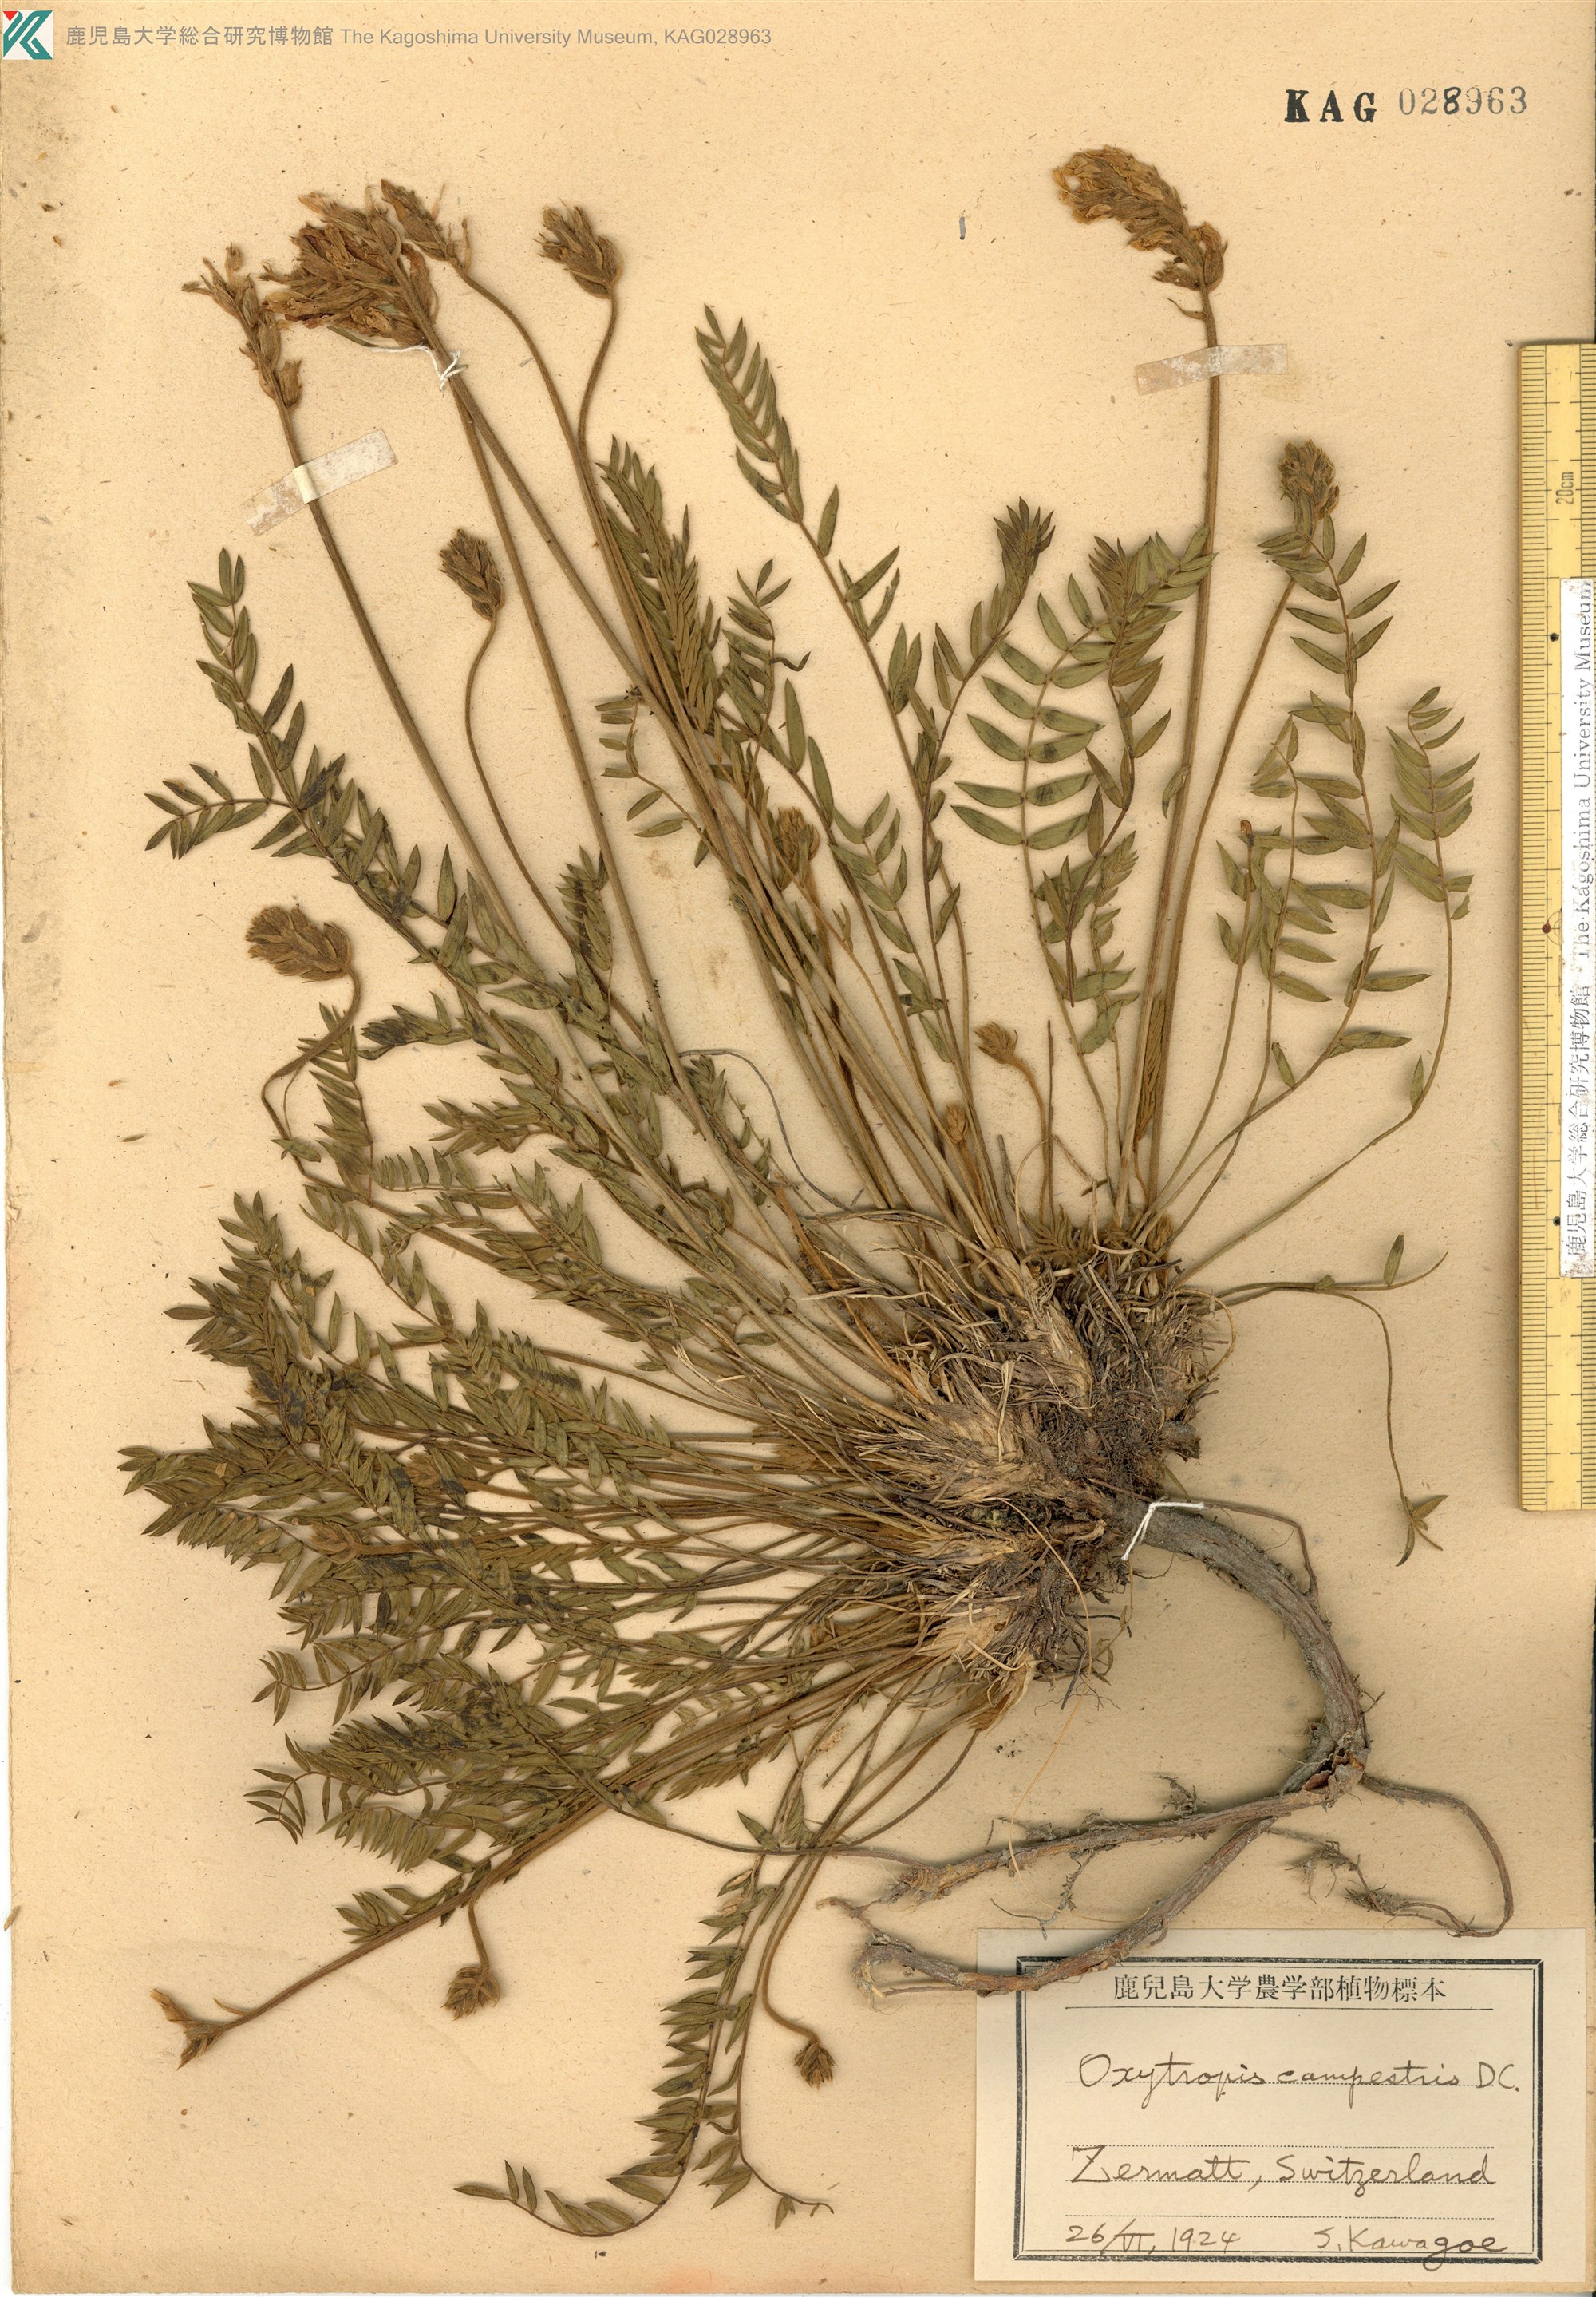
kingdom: Plantae
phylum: Tracheophyta
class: Magnoliopsida
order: Fabales
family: Fabaceae
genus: Oxytropis
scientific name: Oxytropis campestris
